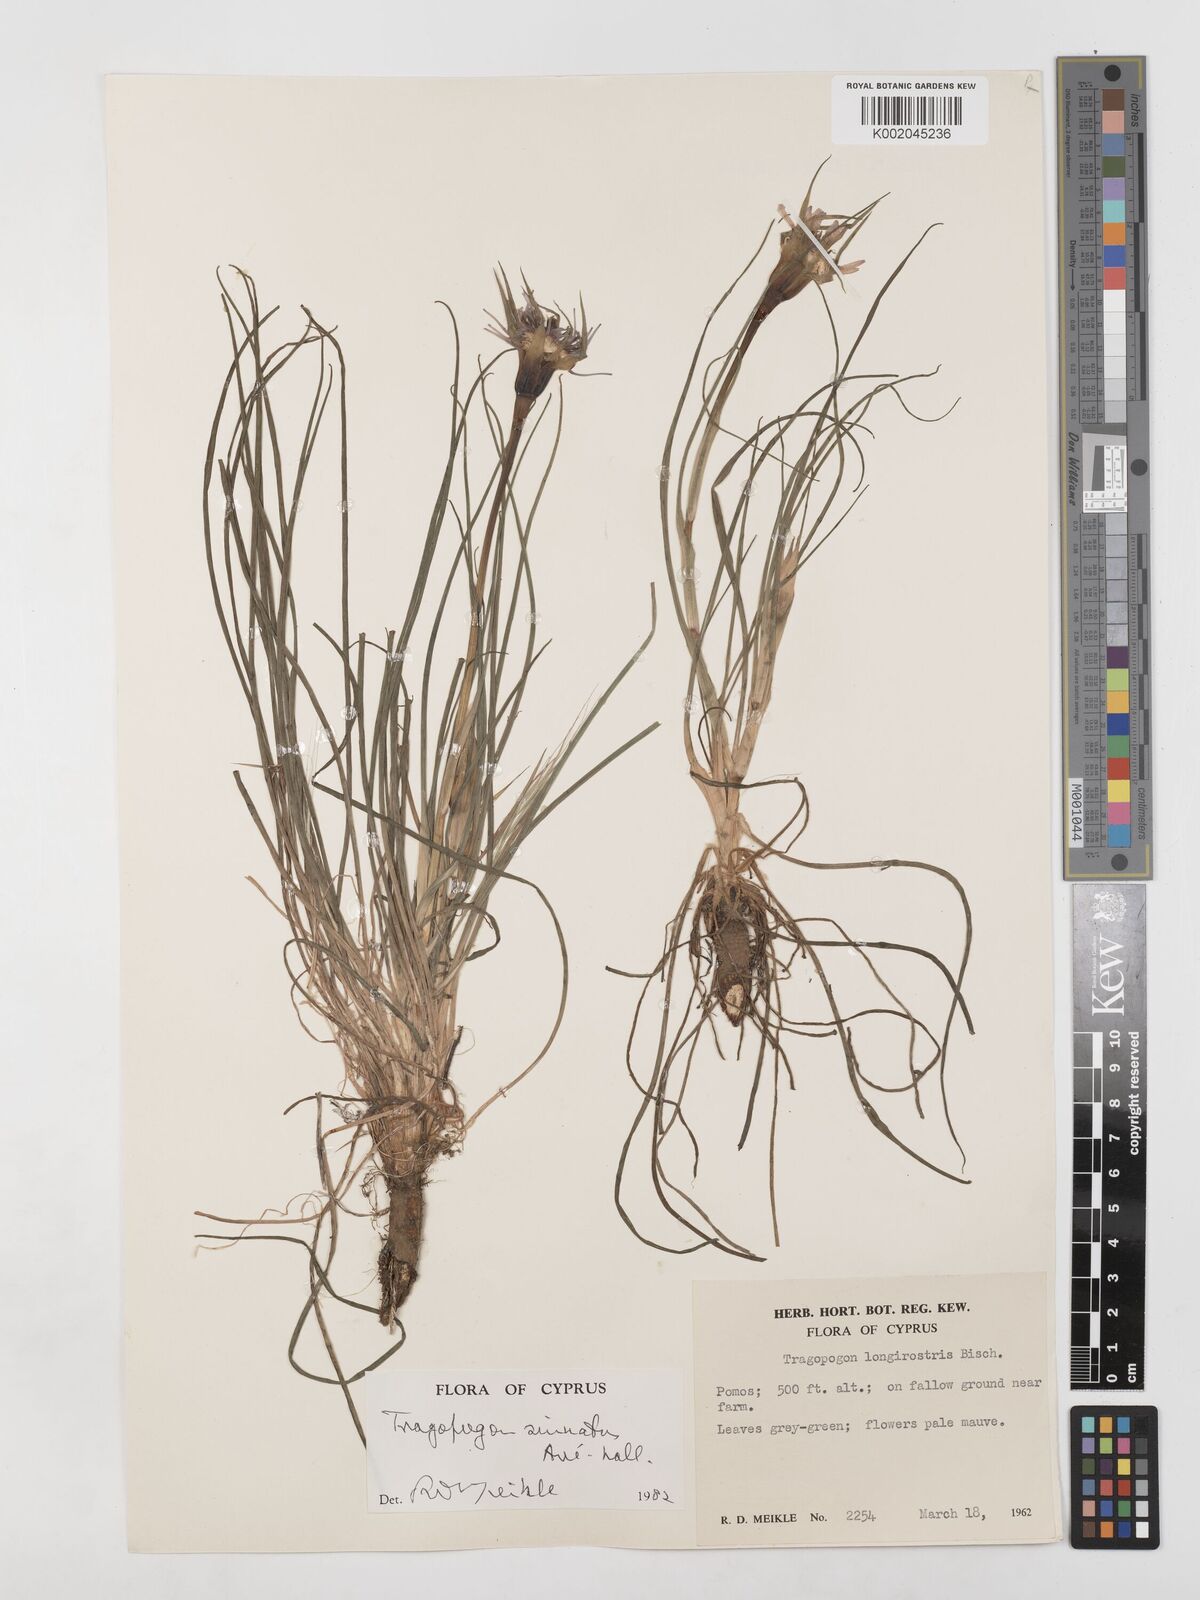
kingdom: Plantae
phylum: Tracheophyta
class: Magnoliopsida
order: Asterales
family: Asteraceae
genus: Tragopogon
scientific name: Tragopogon porrifolius
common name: Salsify
